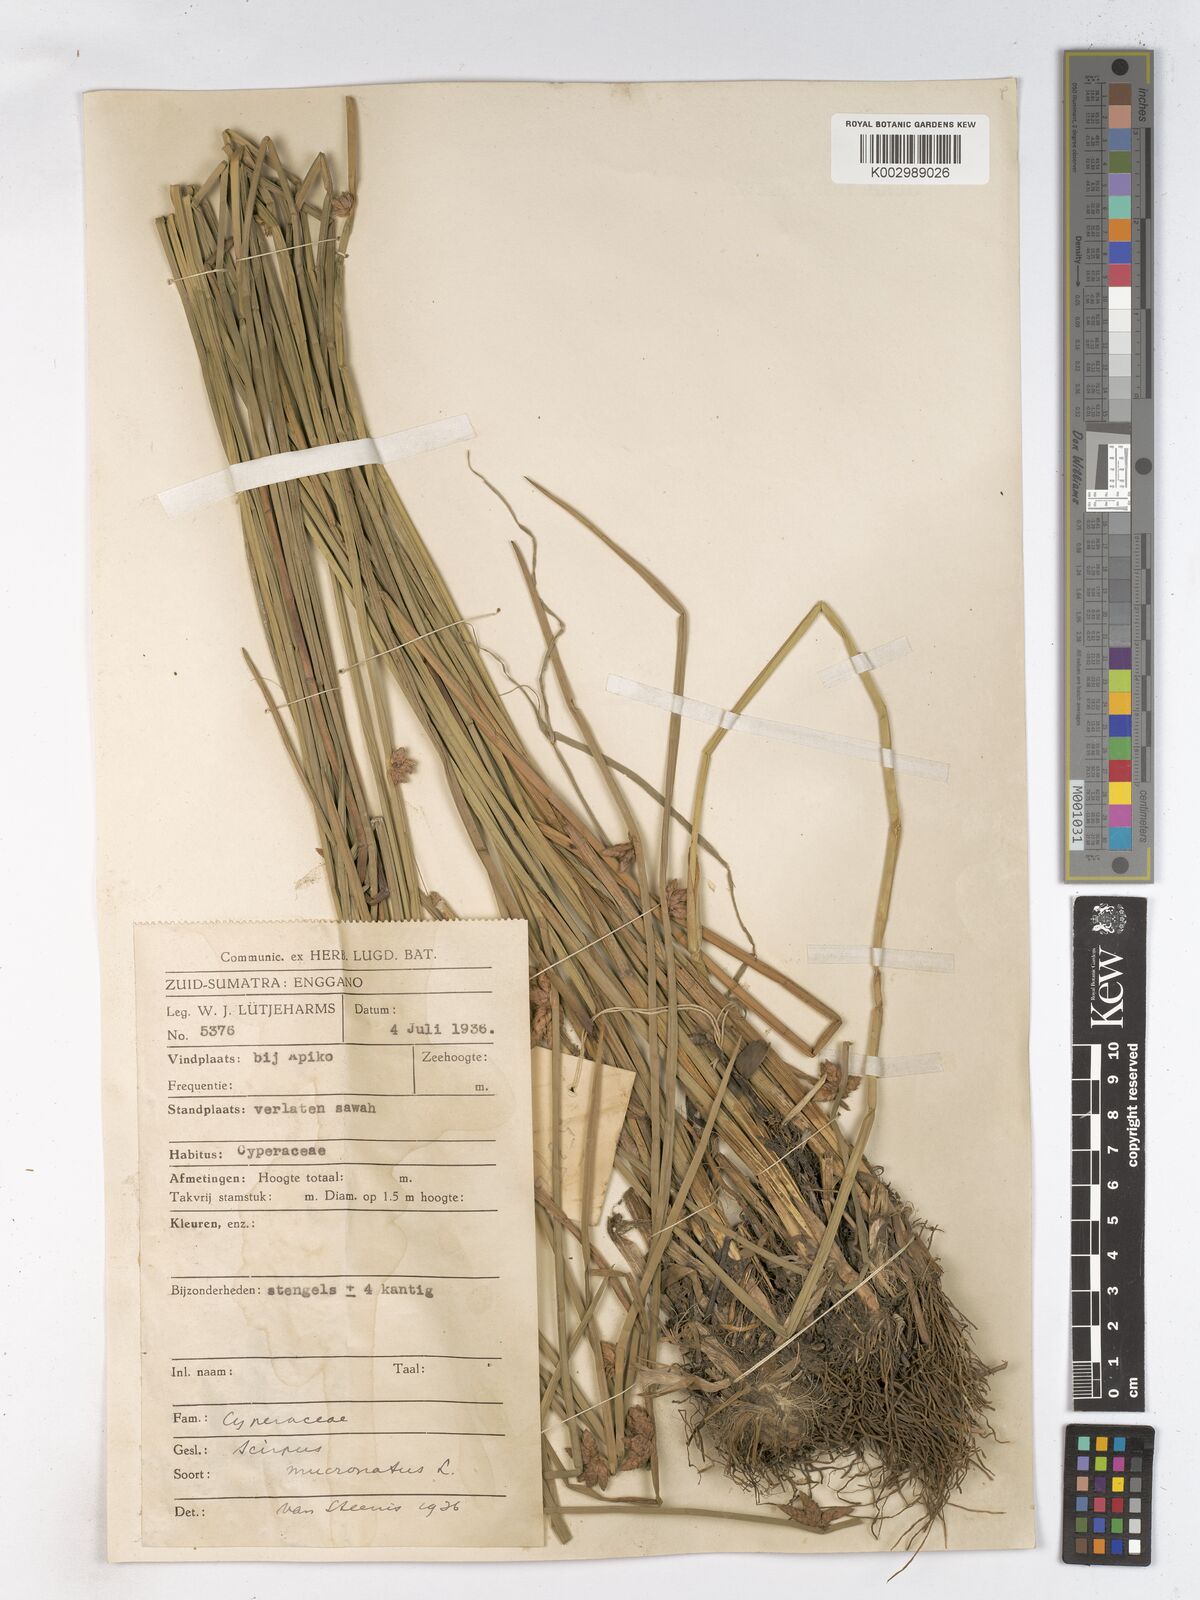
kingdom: Plantae
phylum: Tracheophyta
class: Liliopsida
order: Poales
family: Cyperaceae
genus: Schoenoplectiella
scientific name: Schoenoplectiella mucronata
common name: Bog bulrush
